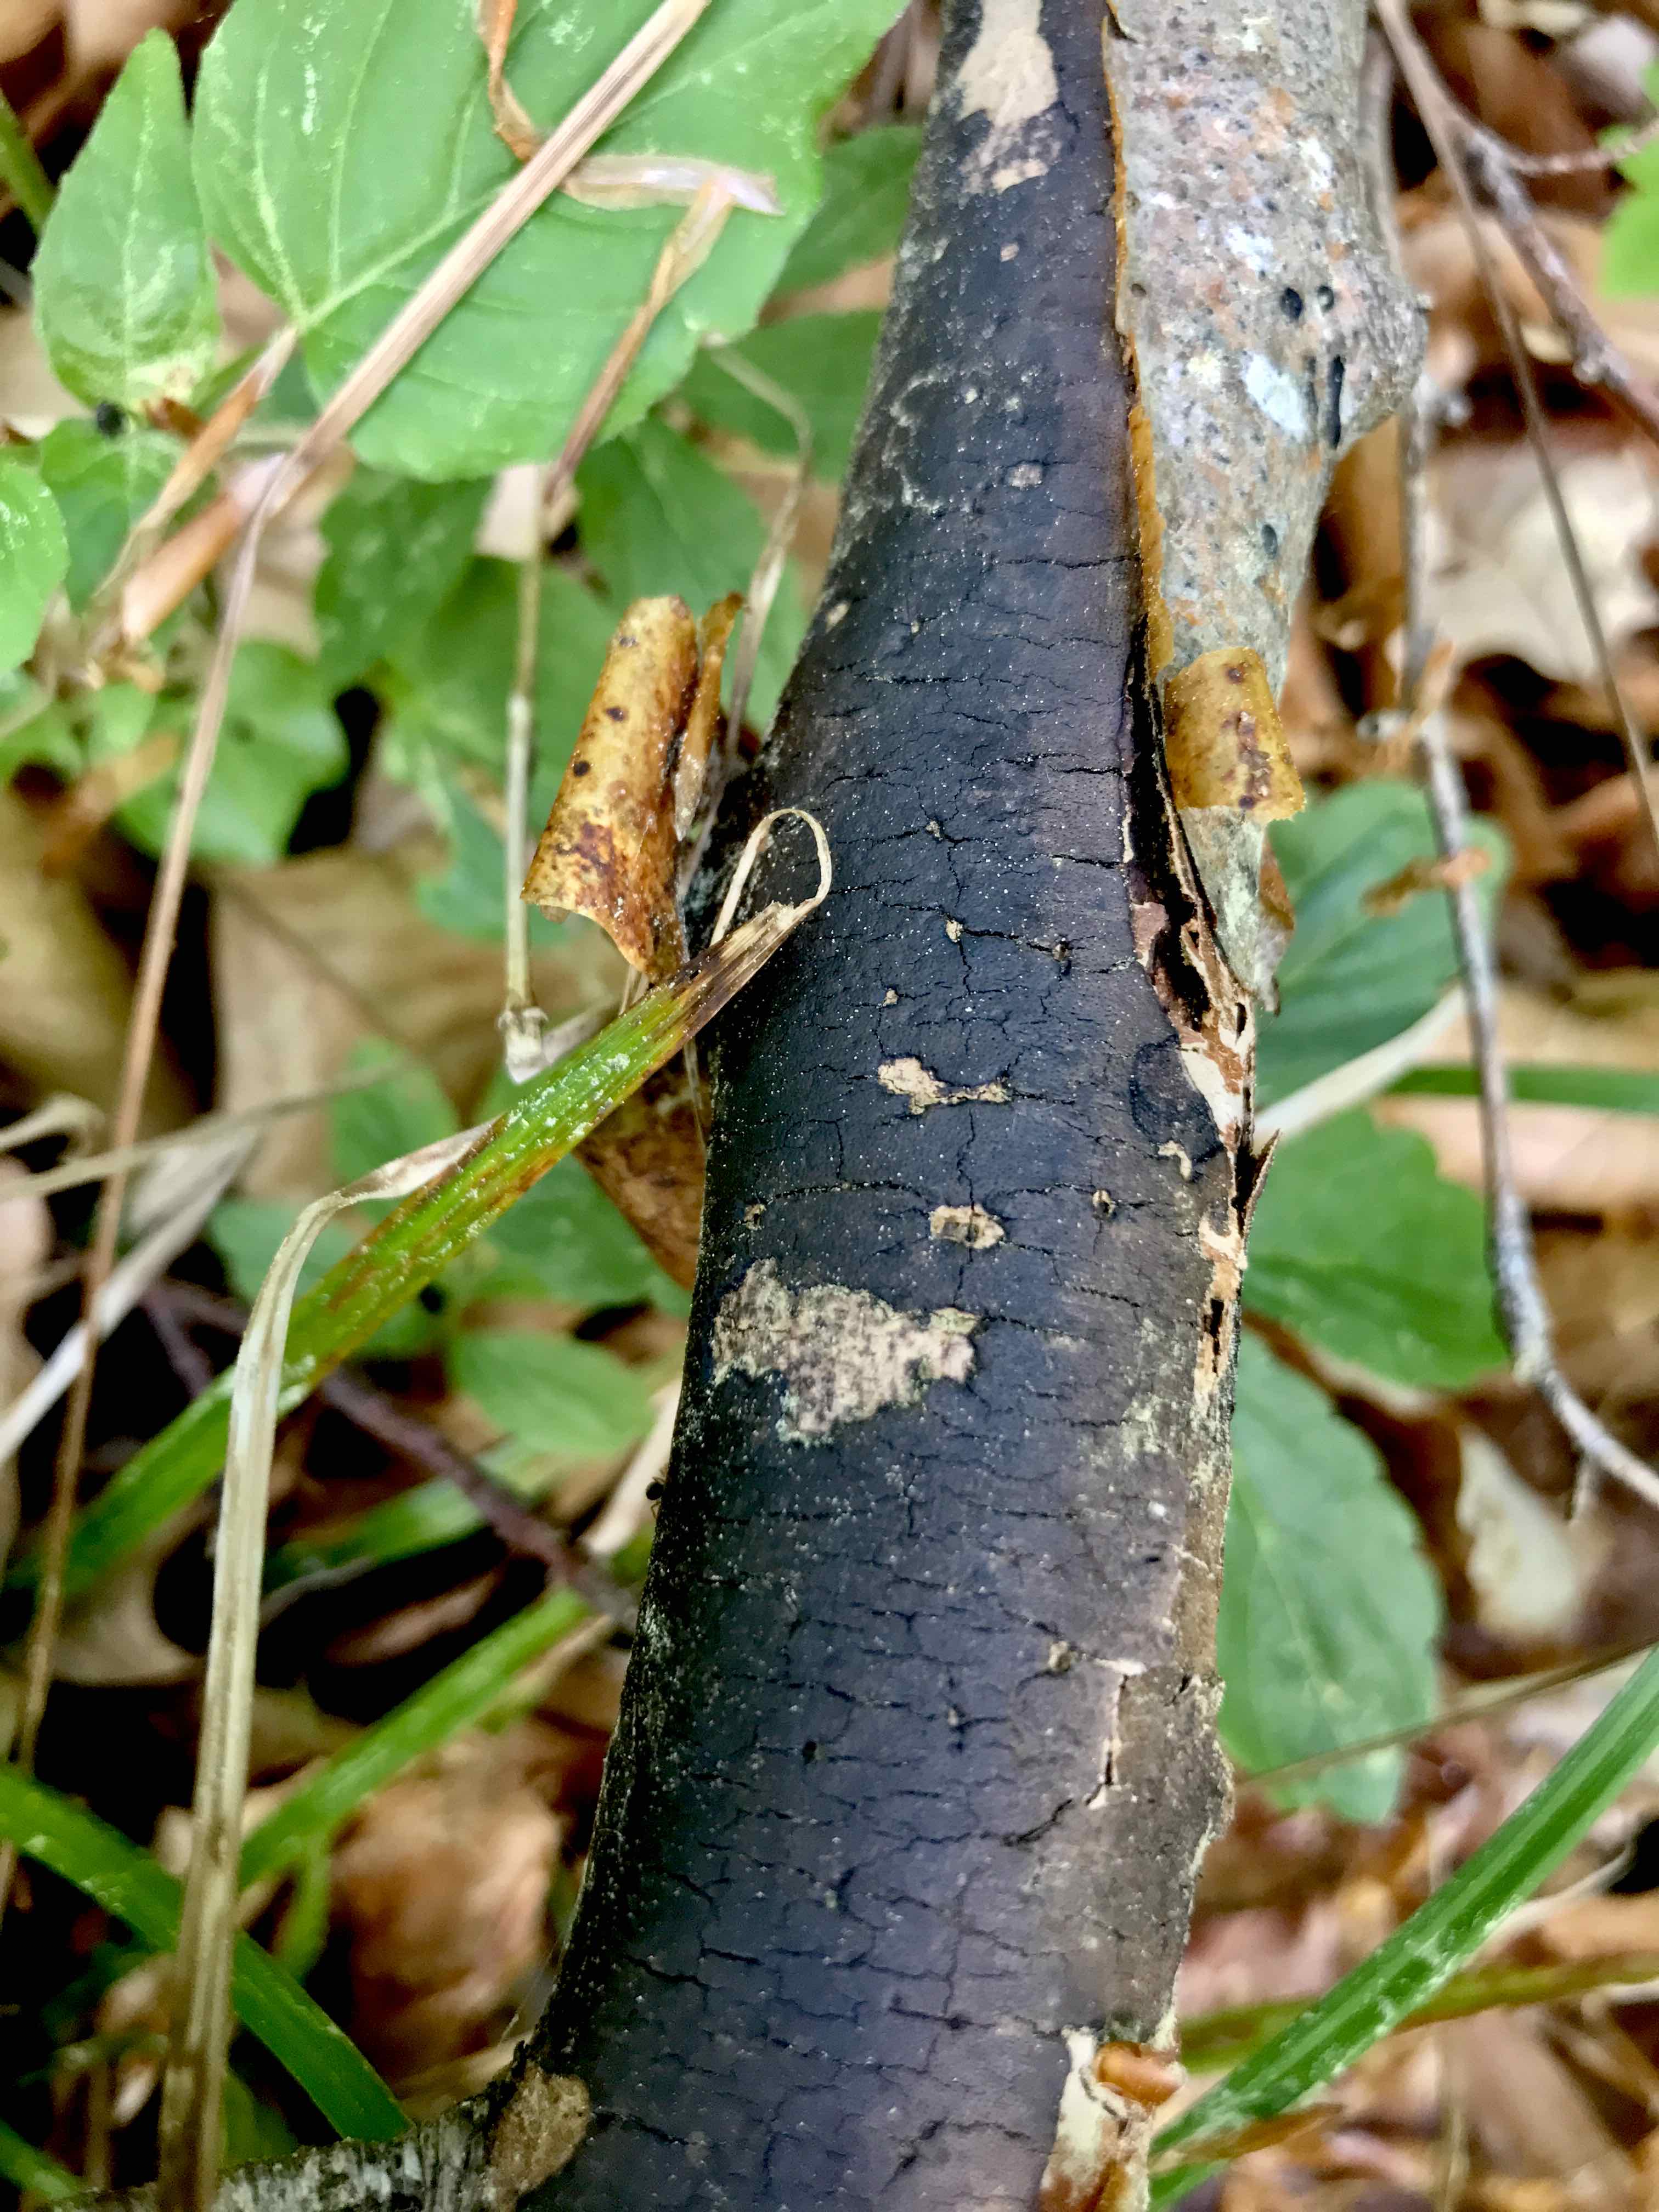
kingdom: Fungi
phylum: Ascomycota
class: Sordariomycetes
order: Xylariales
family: Diatrypaceae
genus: Diatrype
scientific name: Diatrype decorticata
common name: barksprænger-kulskorpe
